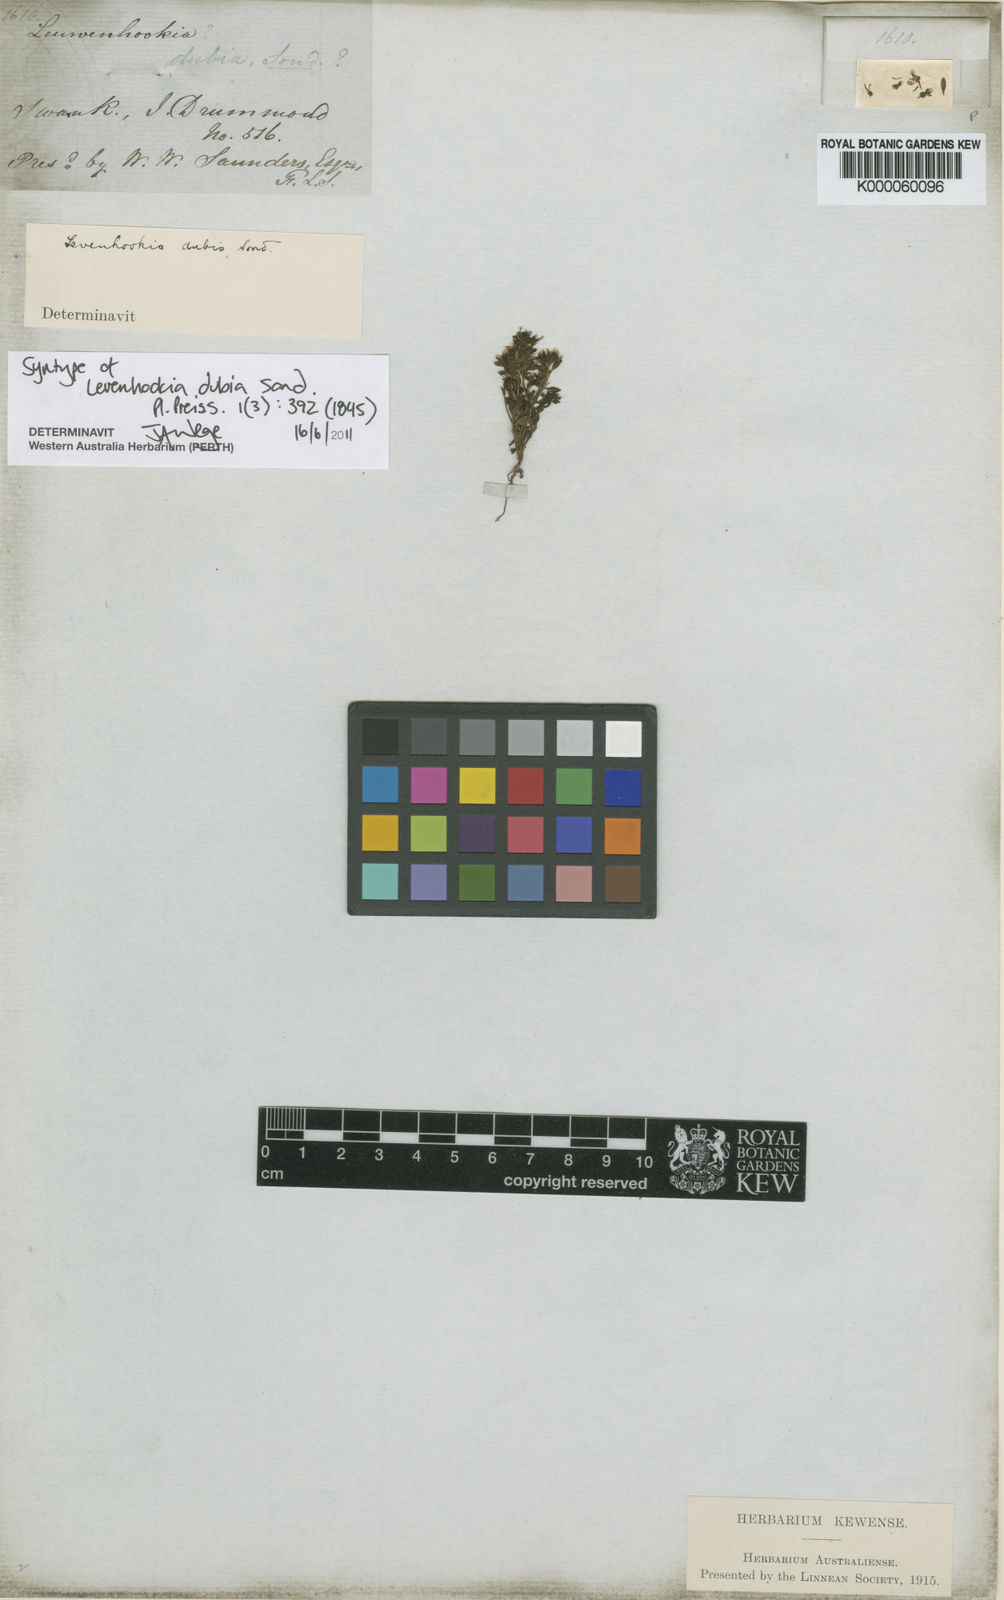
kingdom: Plantae
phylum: Tracheophyta
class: Magnoliopsida
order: Asterales
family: Stylidiaceae
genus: Levenhookia
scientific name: Levenhookia dubia
